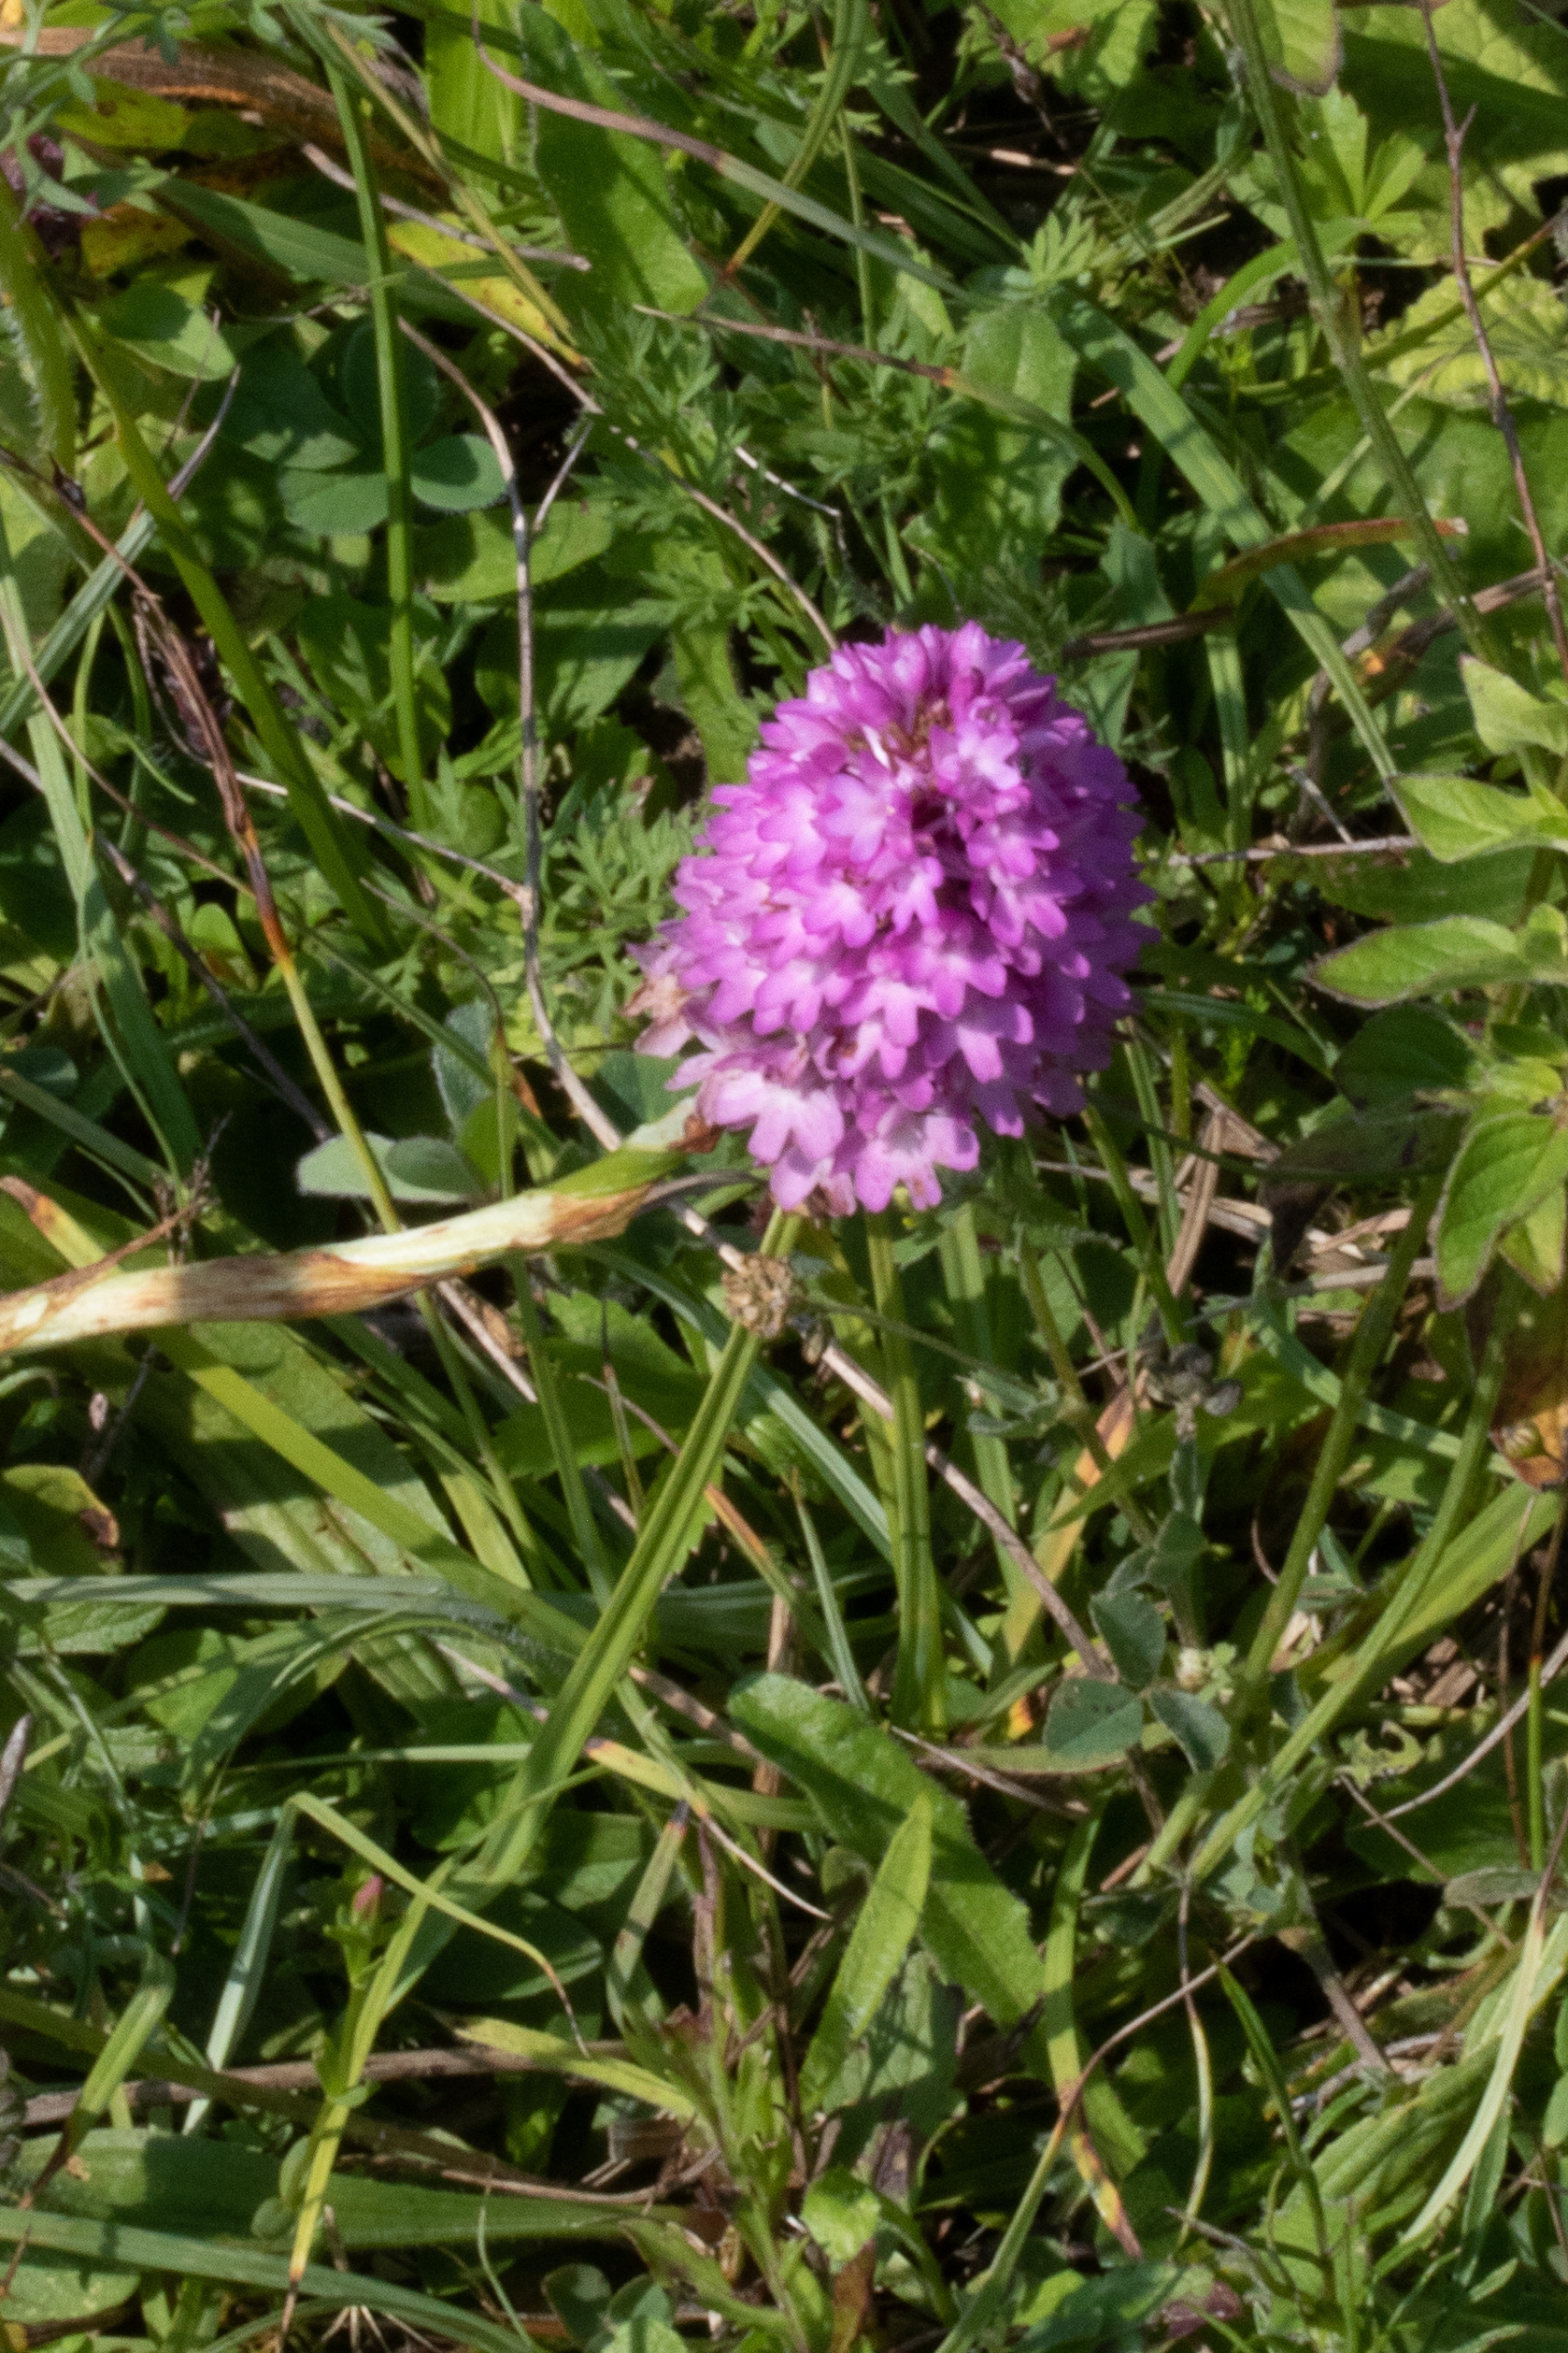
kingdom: Plantae
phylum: Tracheophyta
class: Liliopsida
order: Asparagales
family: Orchidaceae
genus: Anacamptis
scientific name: Anacamptis pyramidalis
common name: Horndrager
